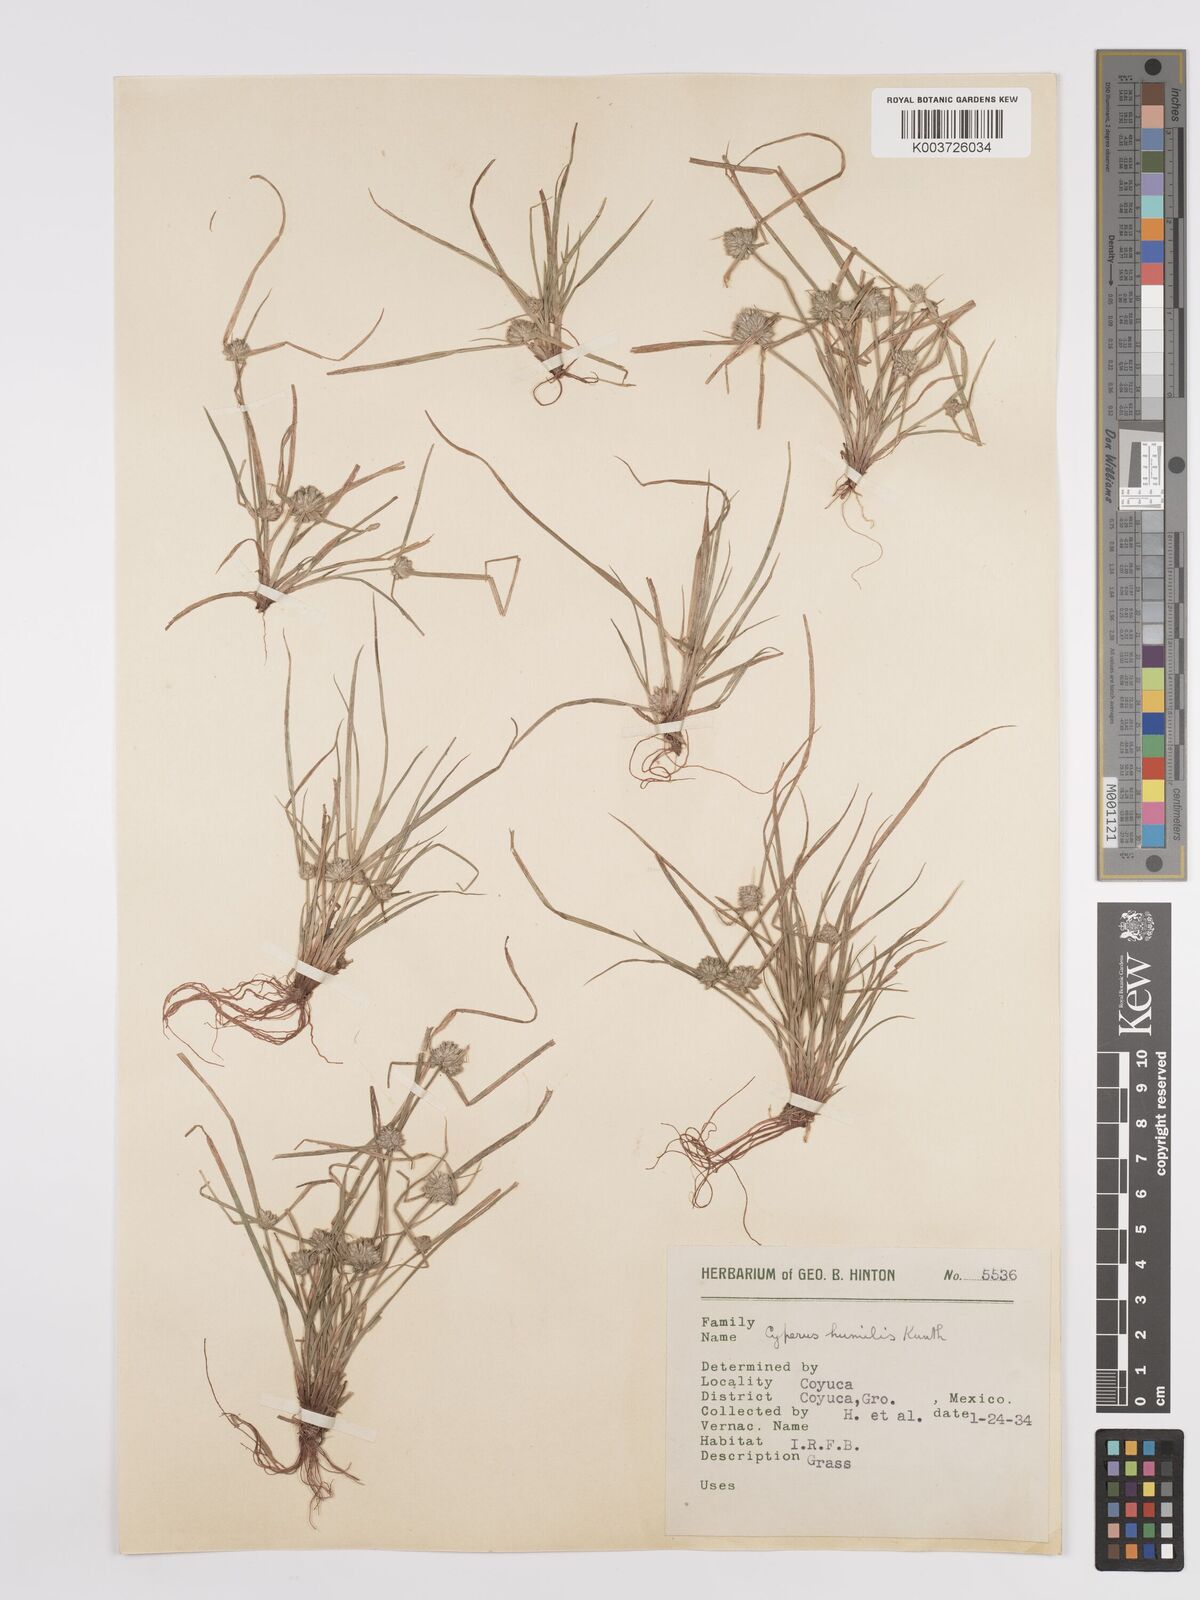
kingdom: Plantae
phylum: Tracheophyta
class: Liliopsida
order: Poales
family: Cyperaceae
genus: Cyperus
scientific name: Cyperus humilis
